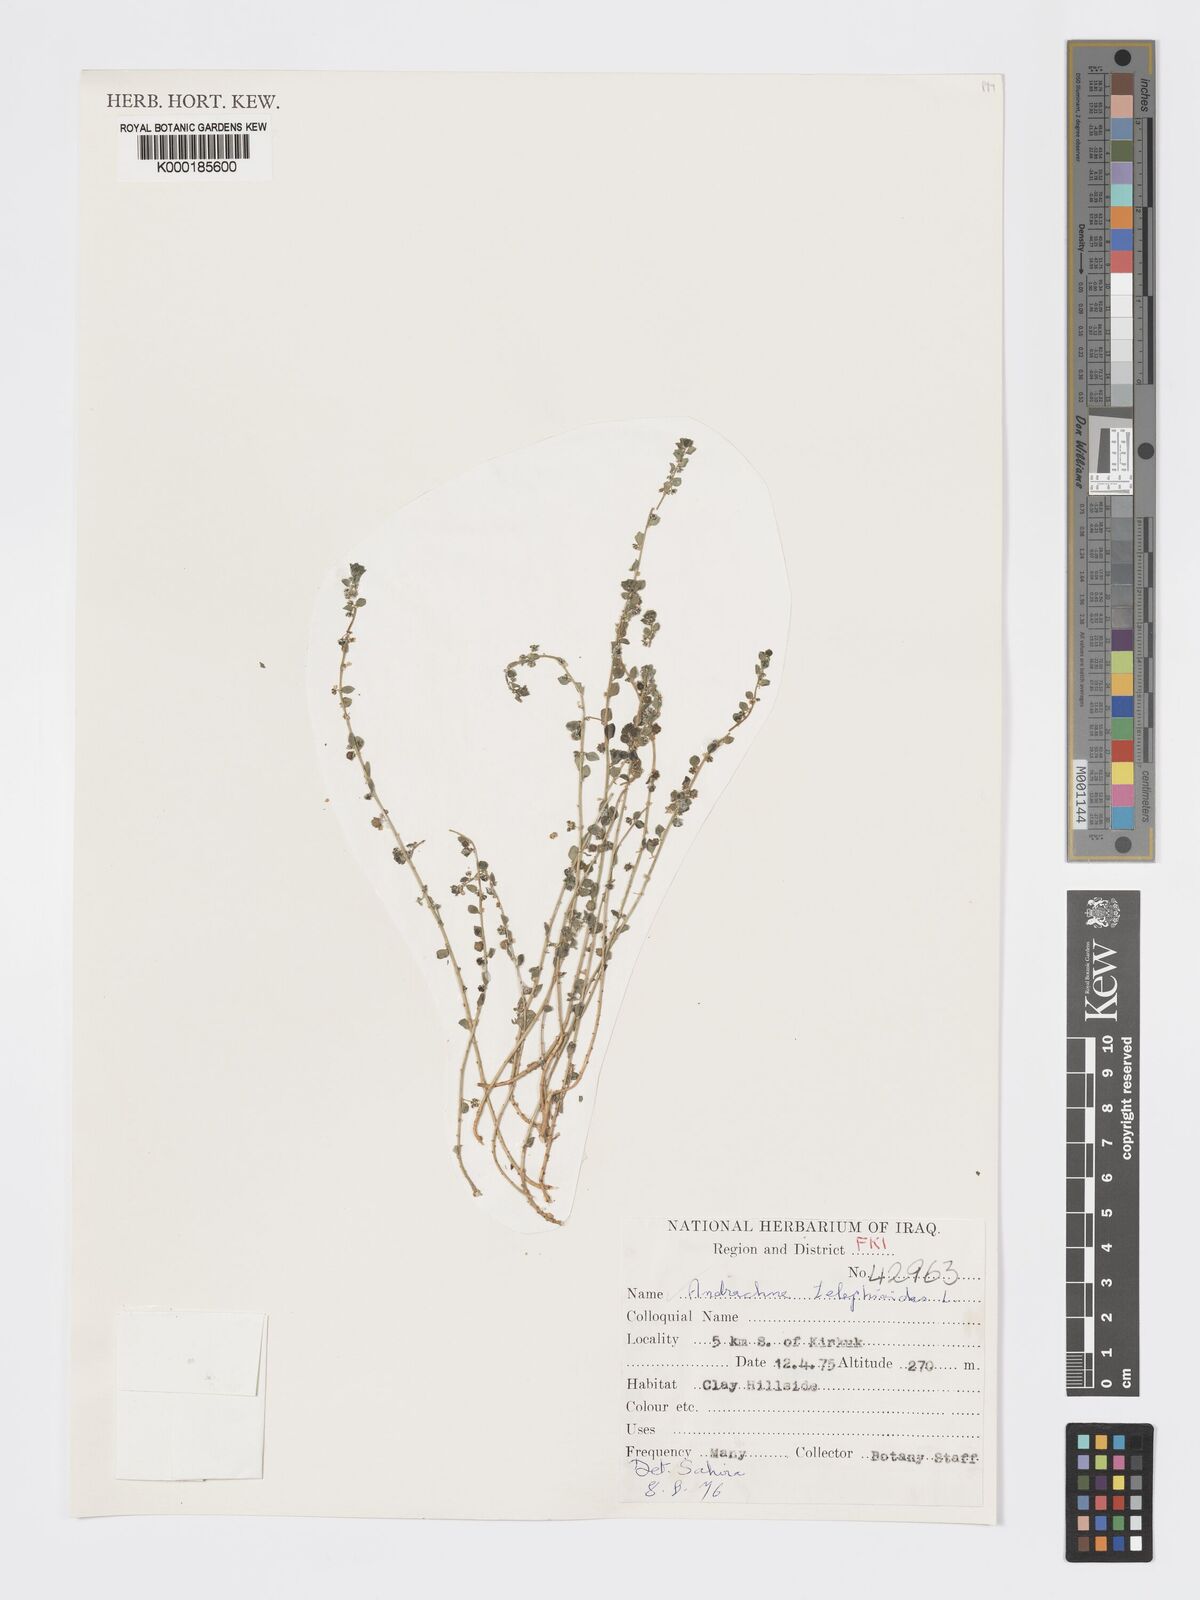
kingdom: Plantae
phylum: Tracheophyta
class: Magnoliopsida
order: Malpighiales
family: Phyllanthaceae
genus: Andrachne
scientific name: Andrachne telephioides
